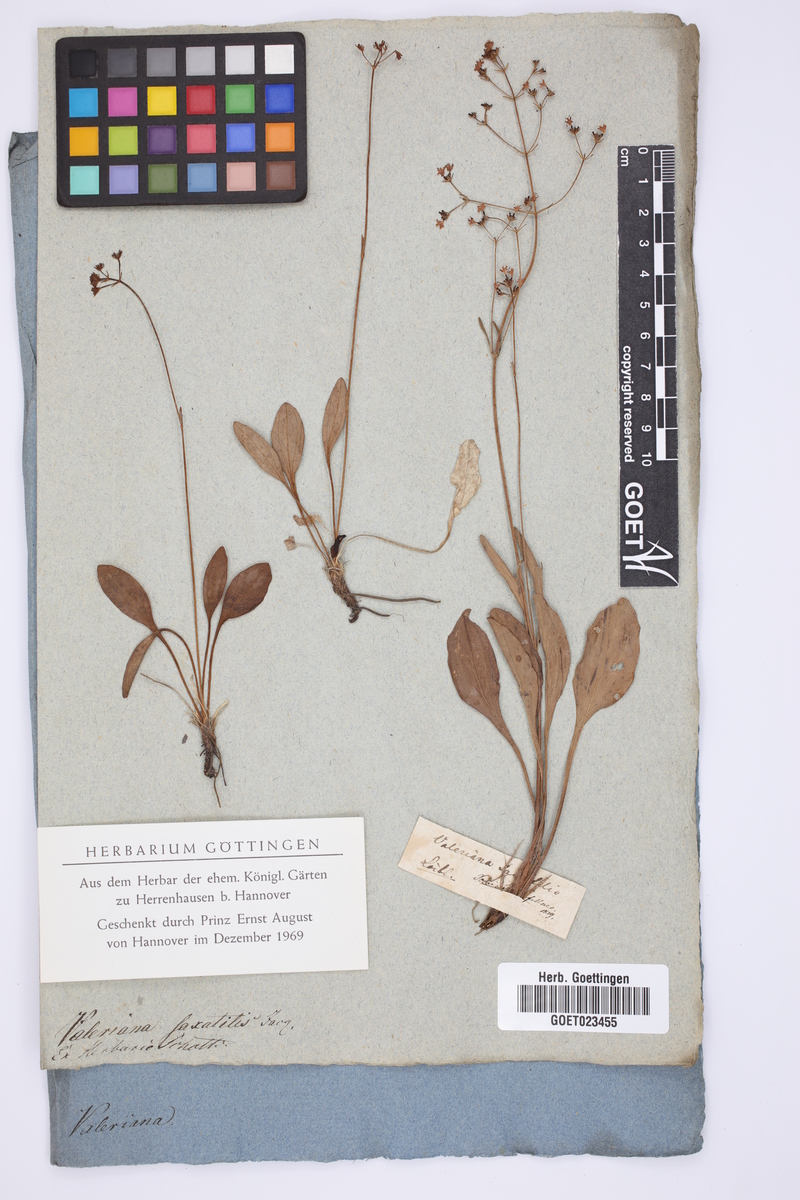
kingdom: Plantae
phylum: Tracheophyta
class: Magnoliopsida
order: Dipsacales
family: Caprifoliaceae
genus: Valeriana
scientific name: Valeriana saxatilis
